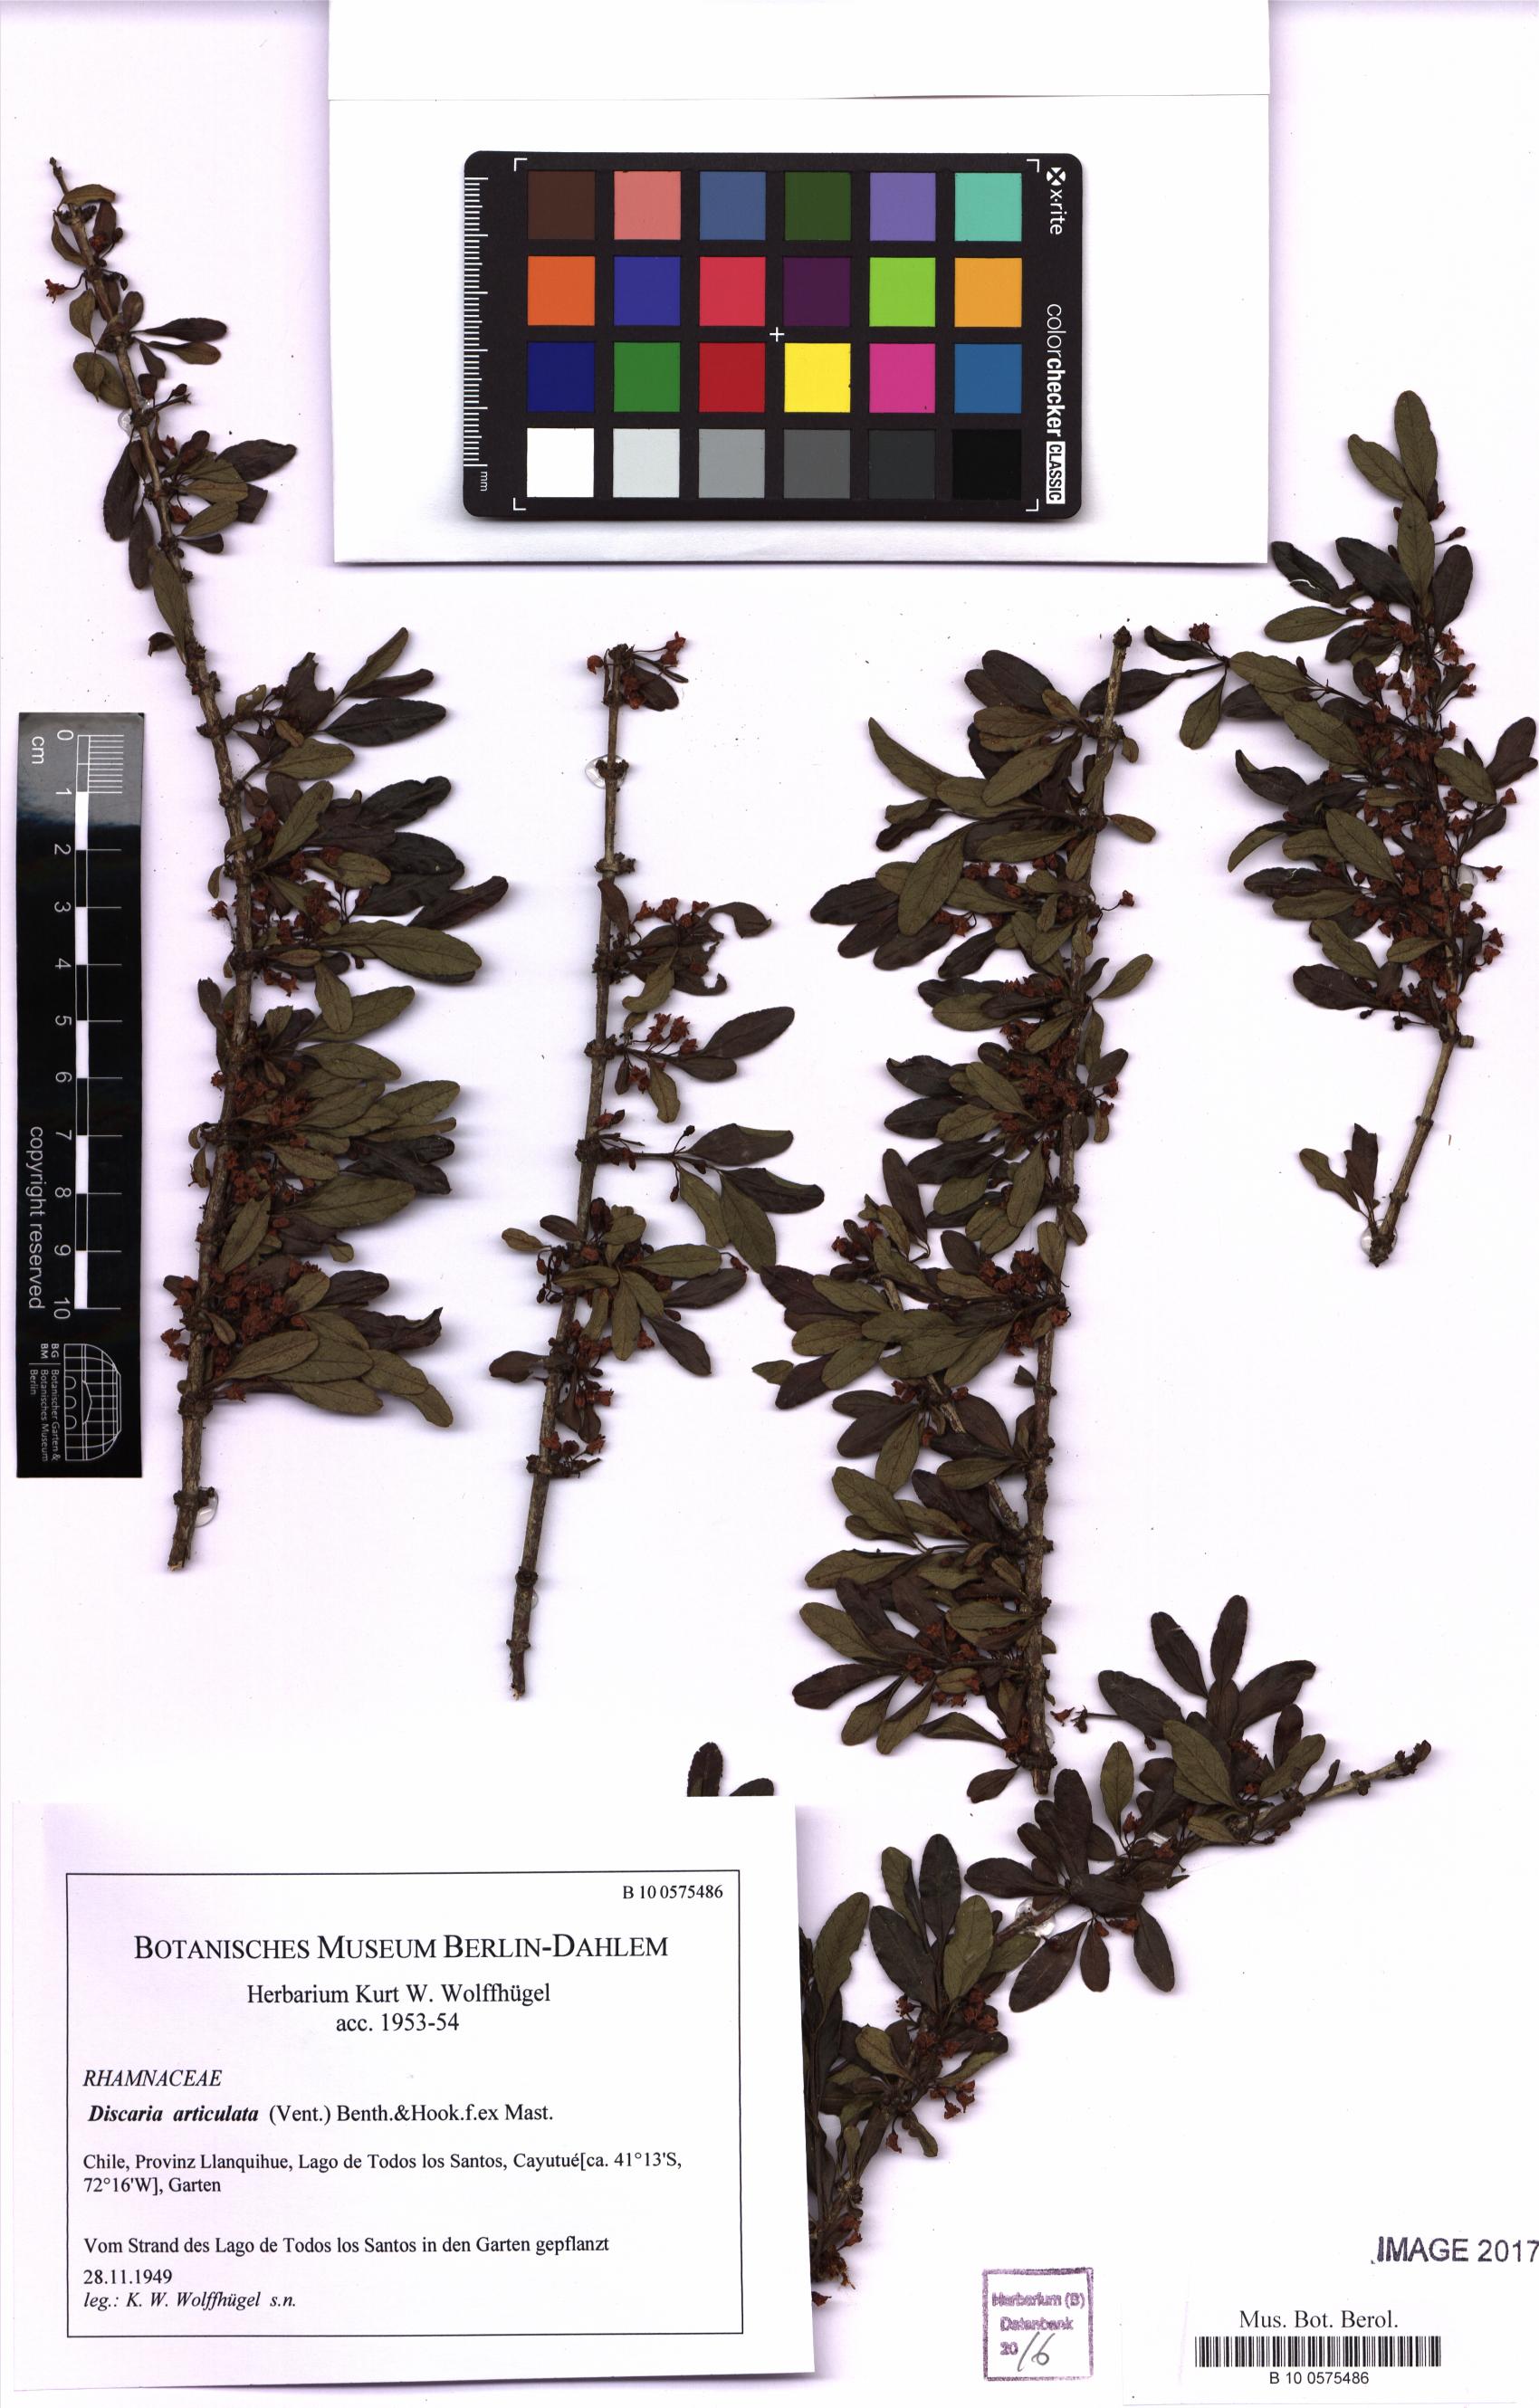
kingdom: Plantae
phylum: Tracheophyta
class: Magnoliopsida
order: Rosales
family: Rhamnaceae
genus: Discaria
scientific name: Discaria articulata
